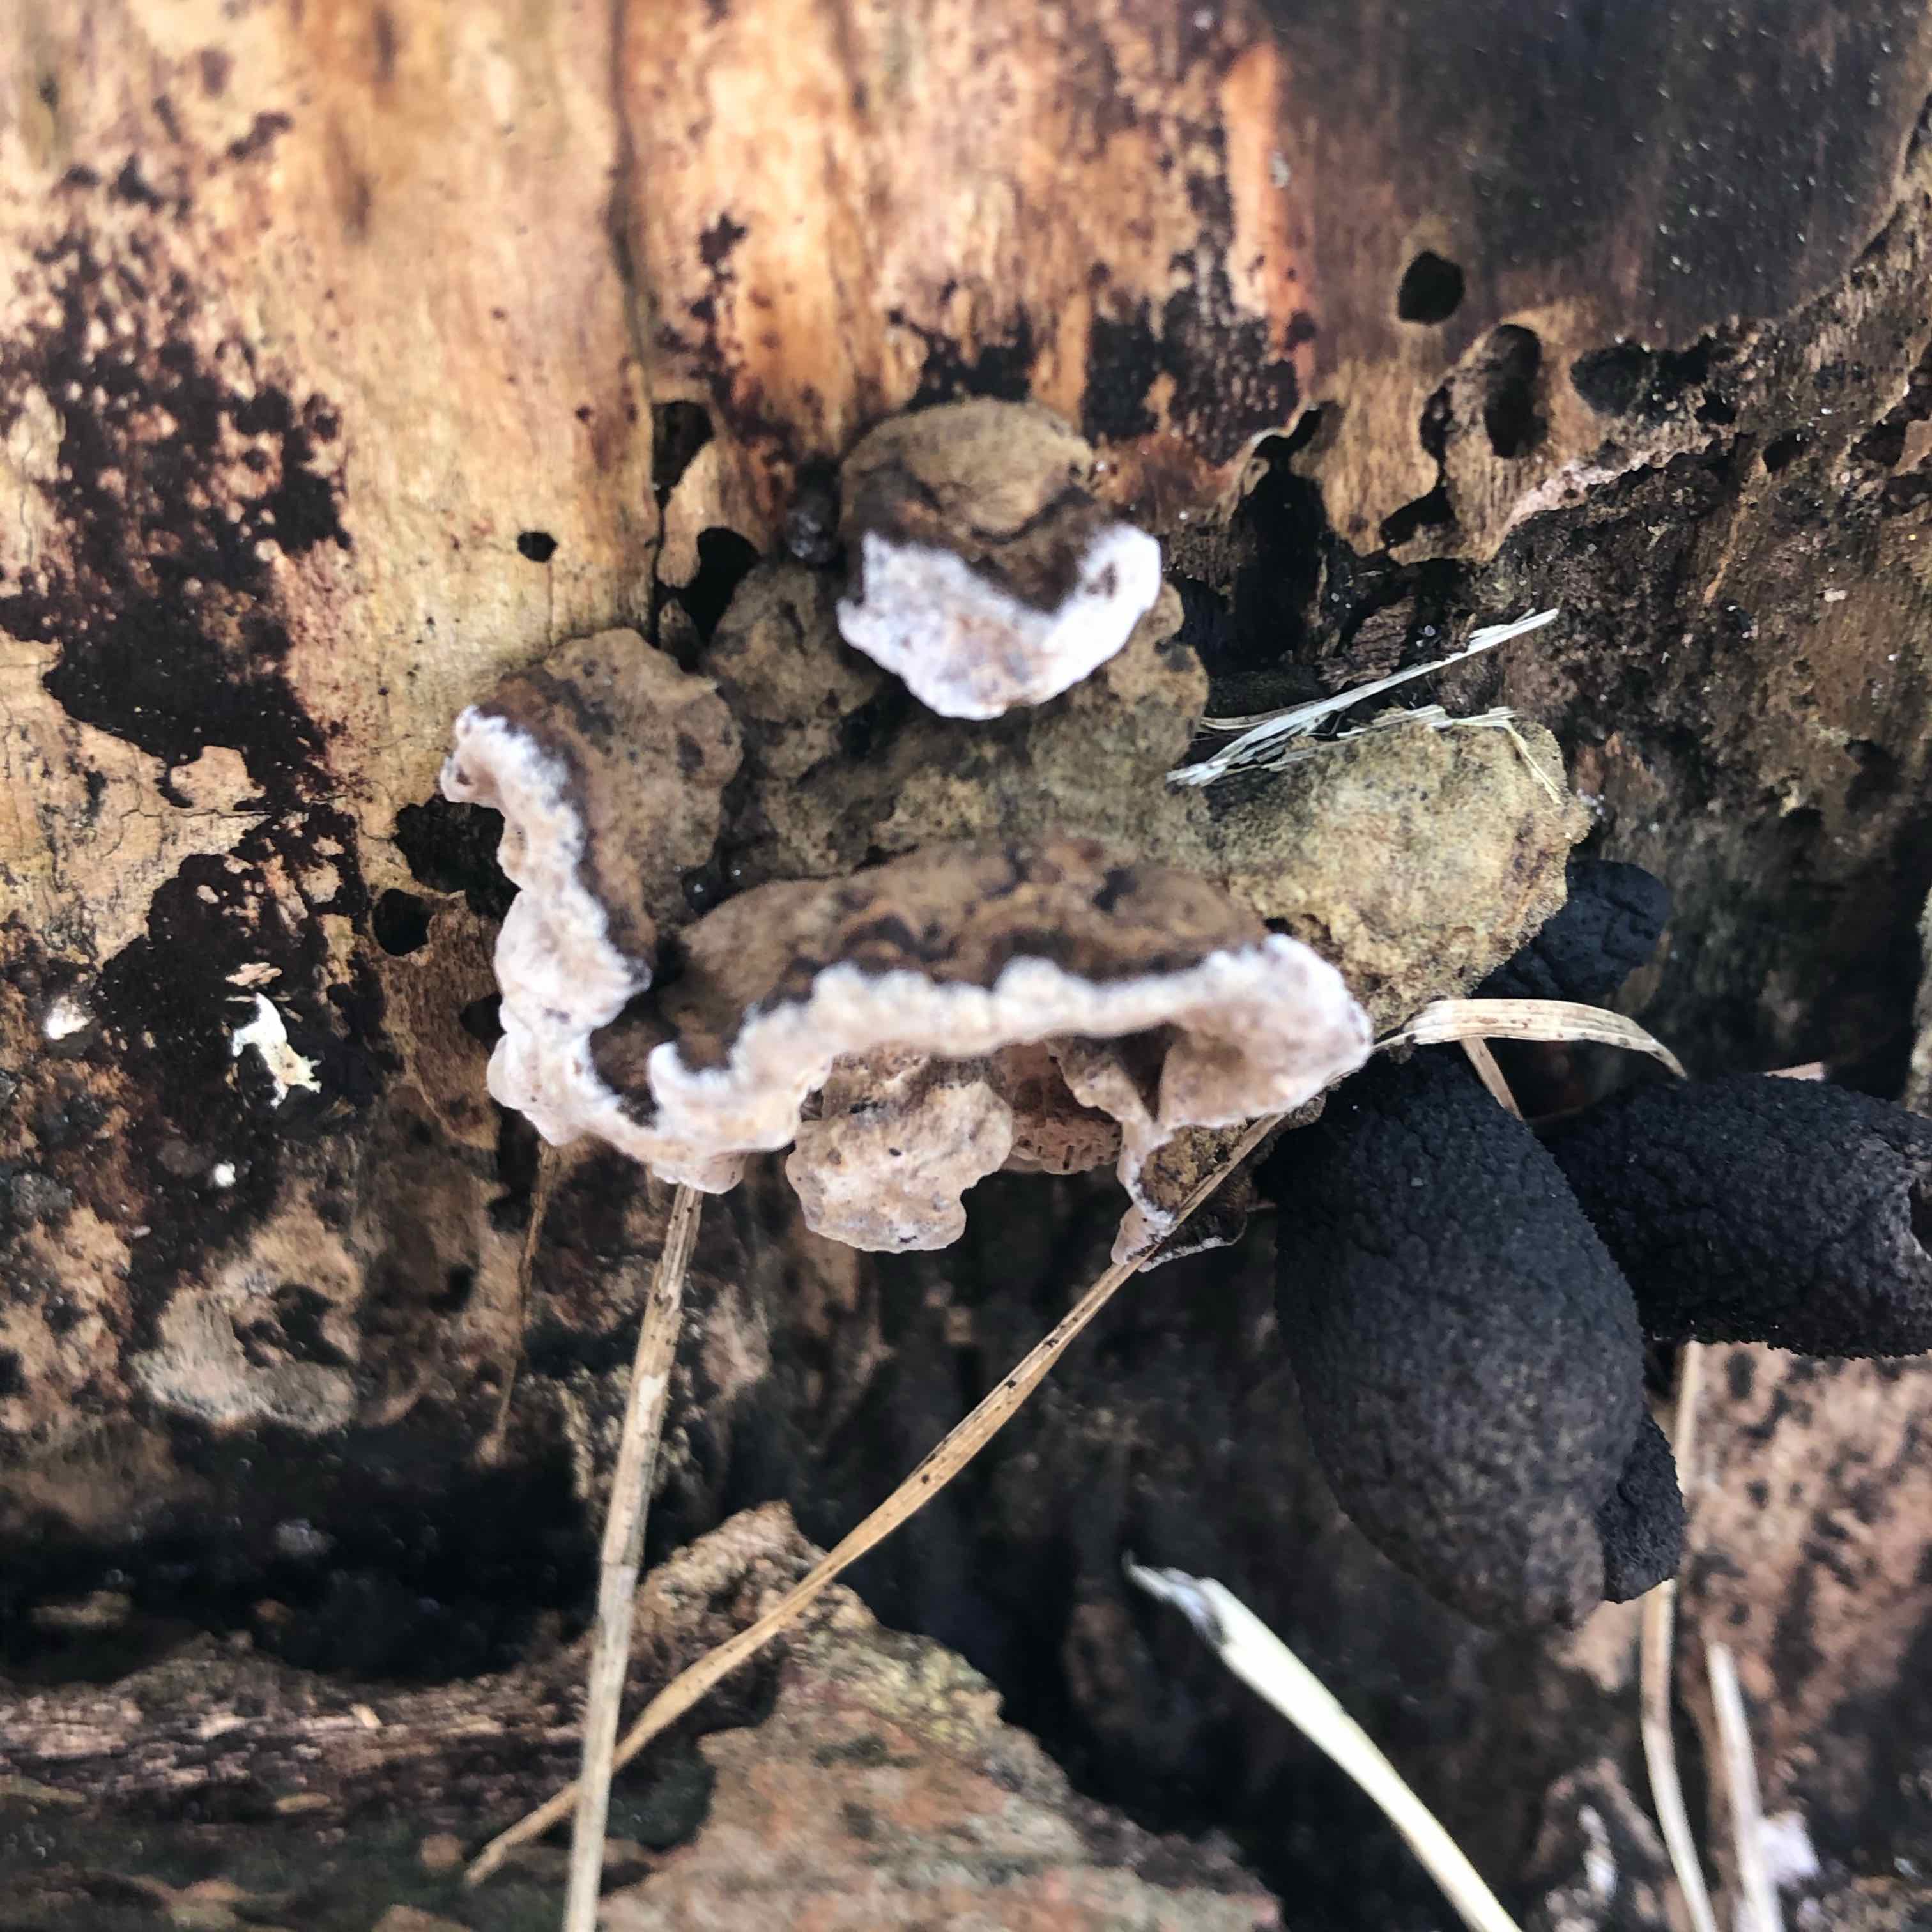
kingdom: Fungi
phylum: Basidiomycota
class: Agaricomycetes
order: Polyporales
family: Polyporaceae
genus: Podofomes
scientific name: Podofomes mollis
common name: blød begporesvamp
